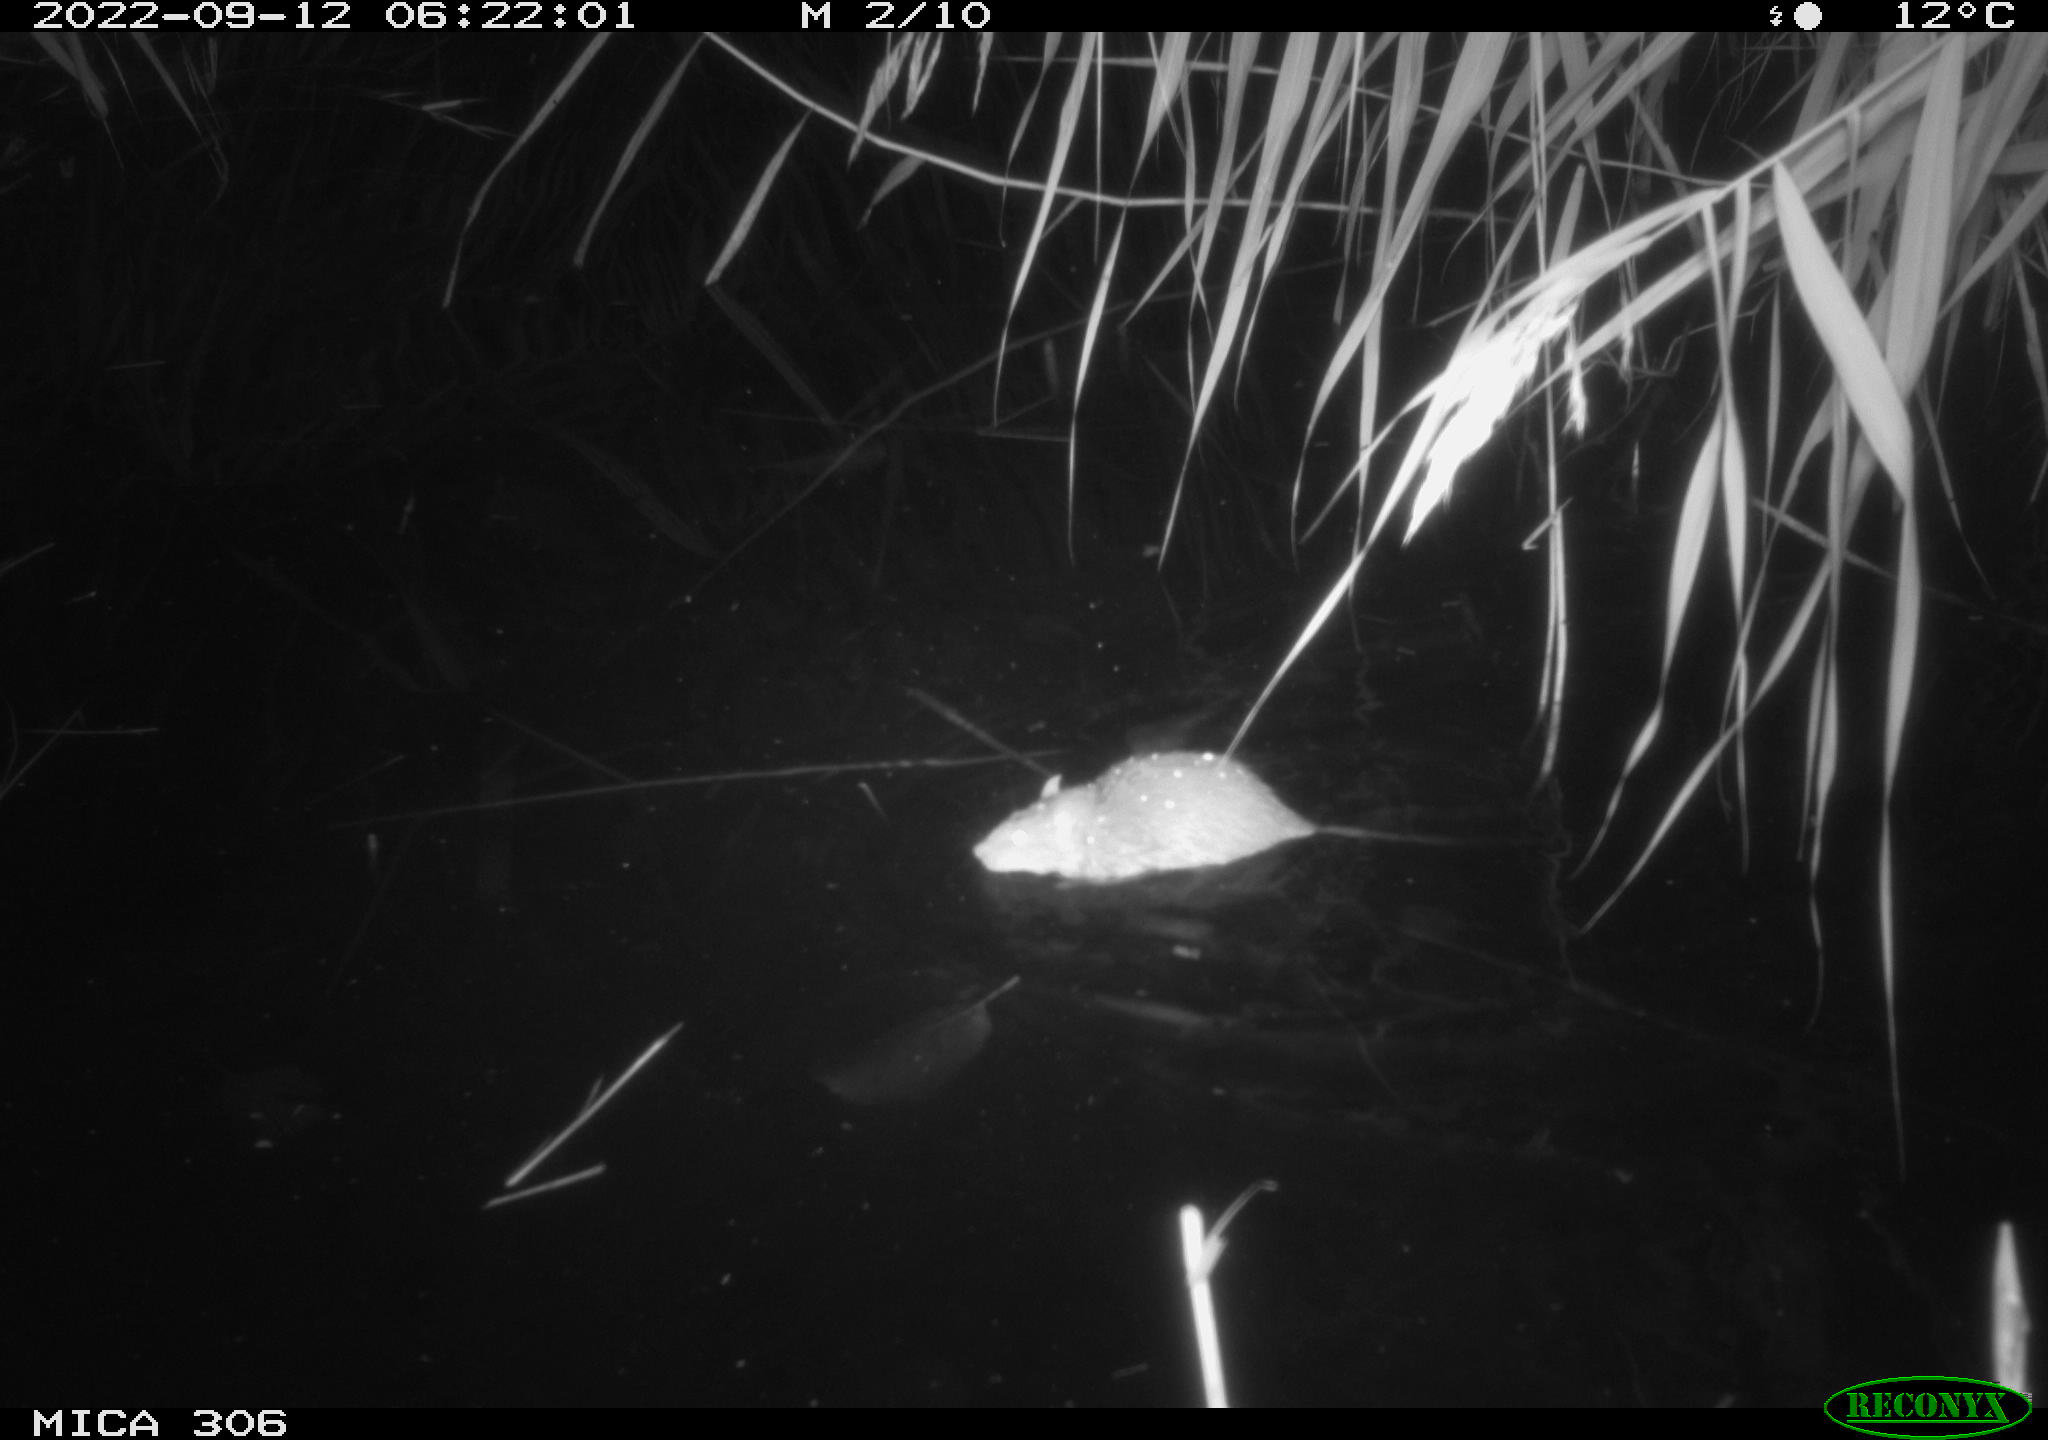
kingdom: Animalia
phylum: Chordata
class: Mammalia
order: Rodentia
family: Muridae
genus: Rattus
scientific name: Rattus norvegicus
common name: Brown rat
